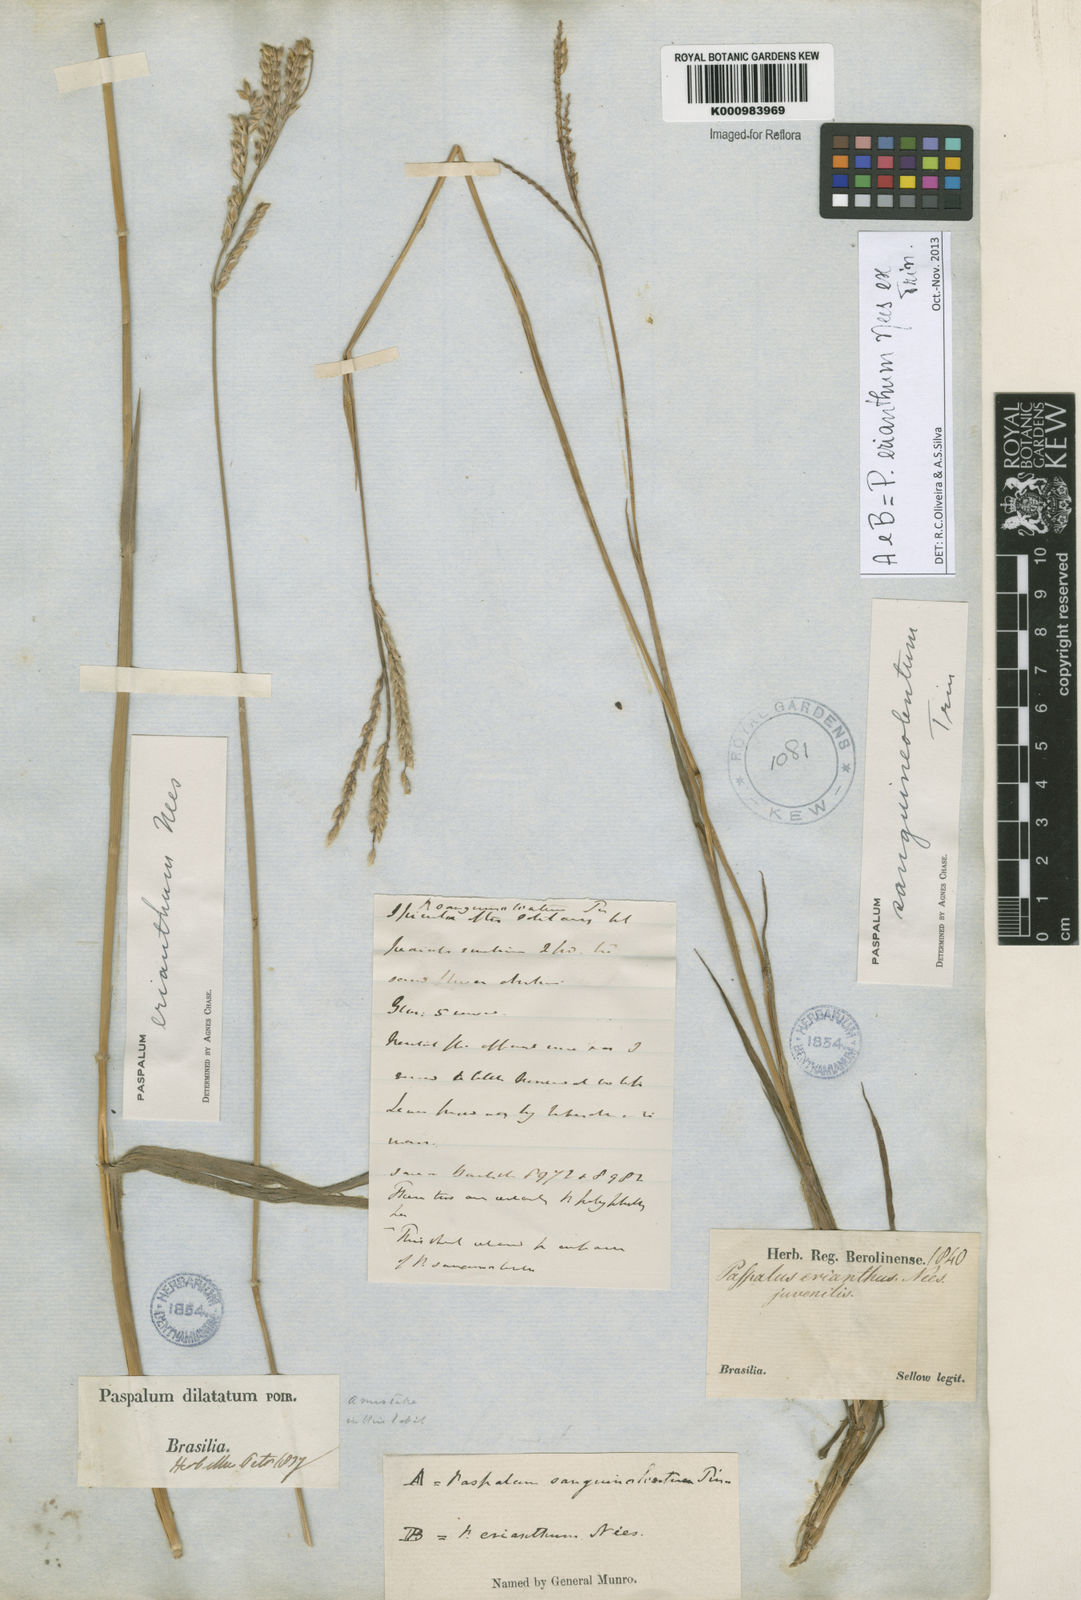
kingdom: Plantae
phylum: Tracheophyta
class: Liliopsida
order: Poales
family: Poaceae
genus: Paspalum
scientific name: Paspalum erianthum
